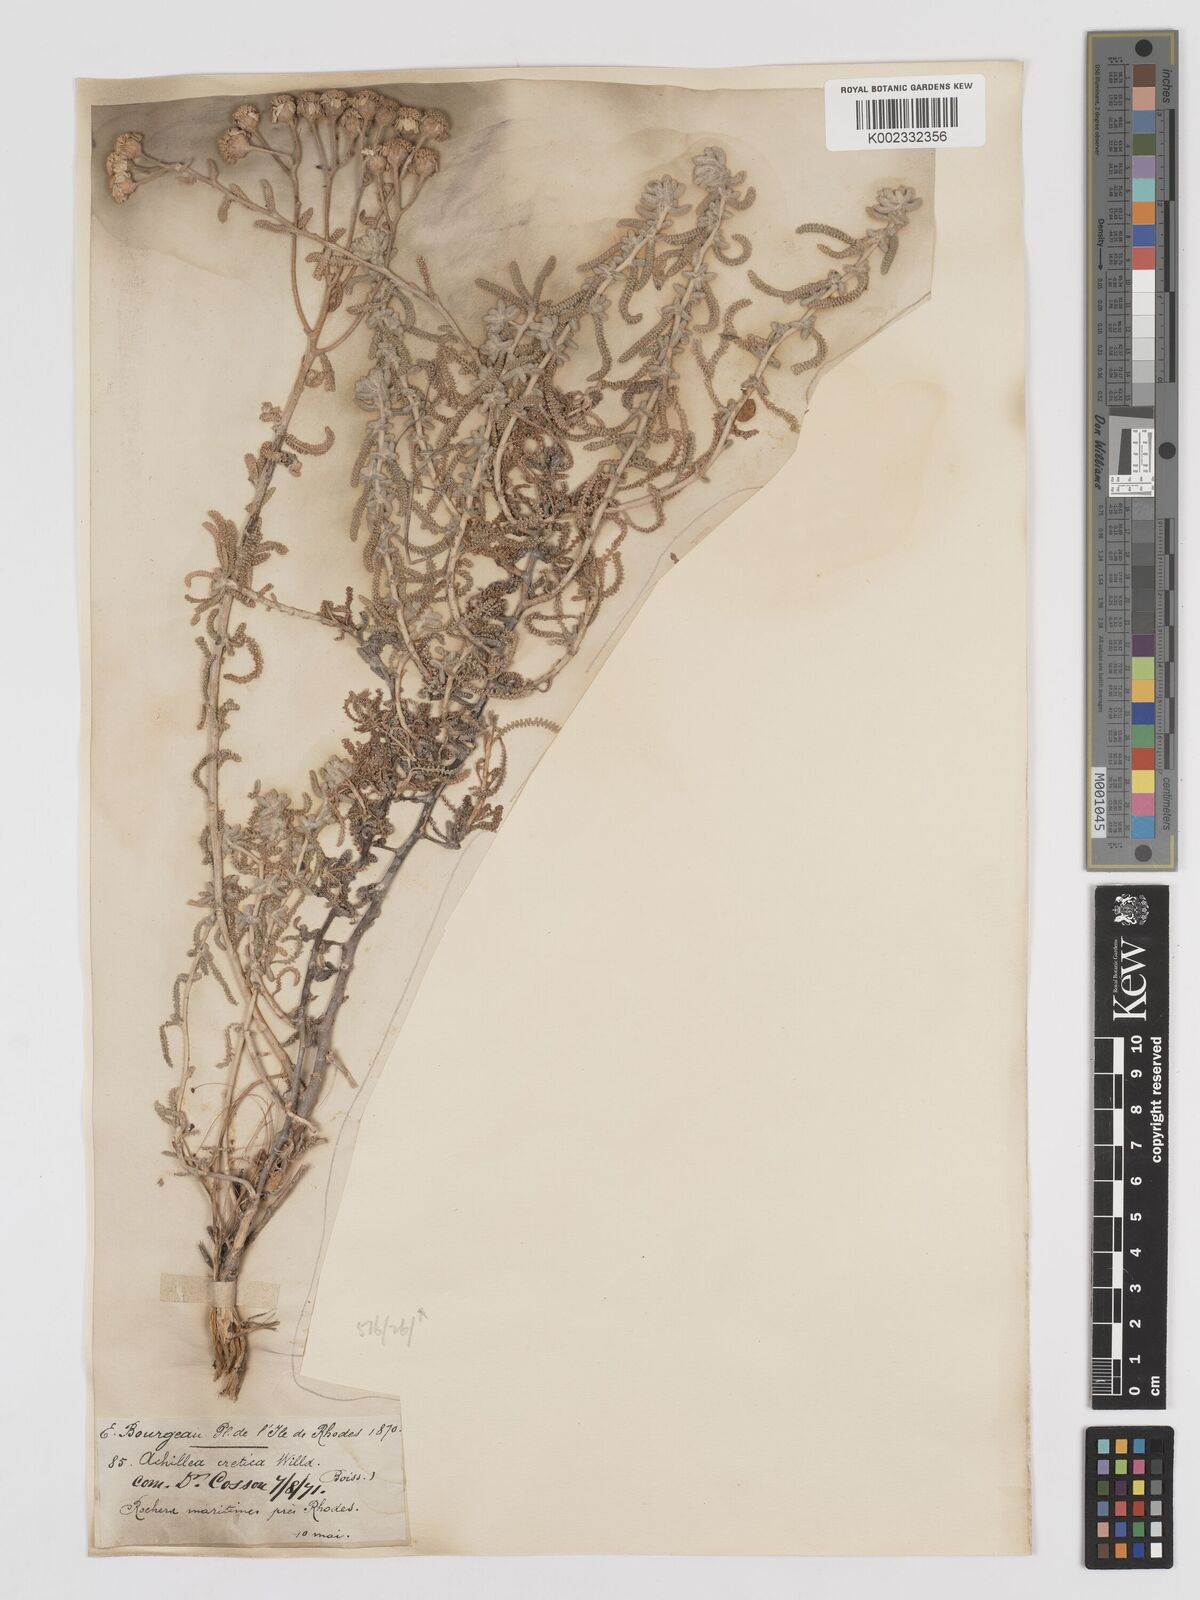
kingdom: Plantae
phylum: Tracheophyta
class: Magnoliopsida
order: Asterales
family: Asteraceae
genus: Achillea
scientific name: Achillea cretica
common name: Chamomile-leaved lavender-cotton
